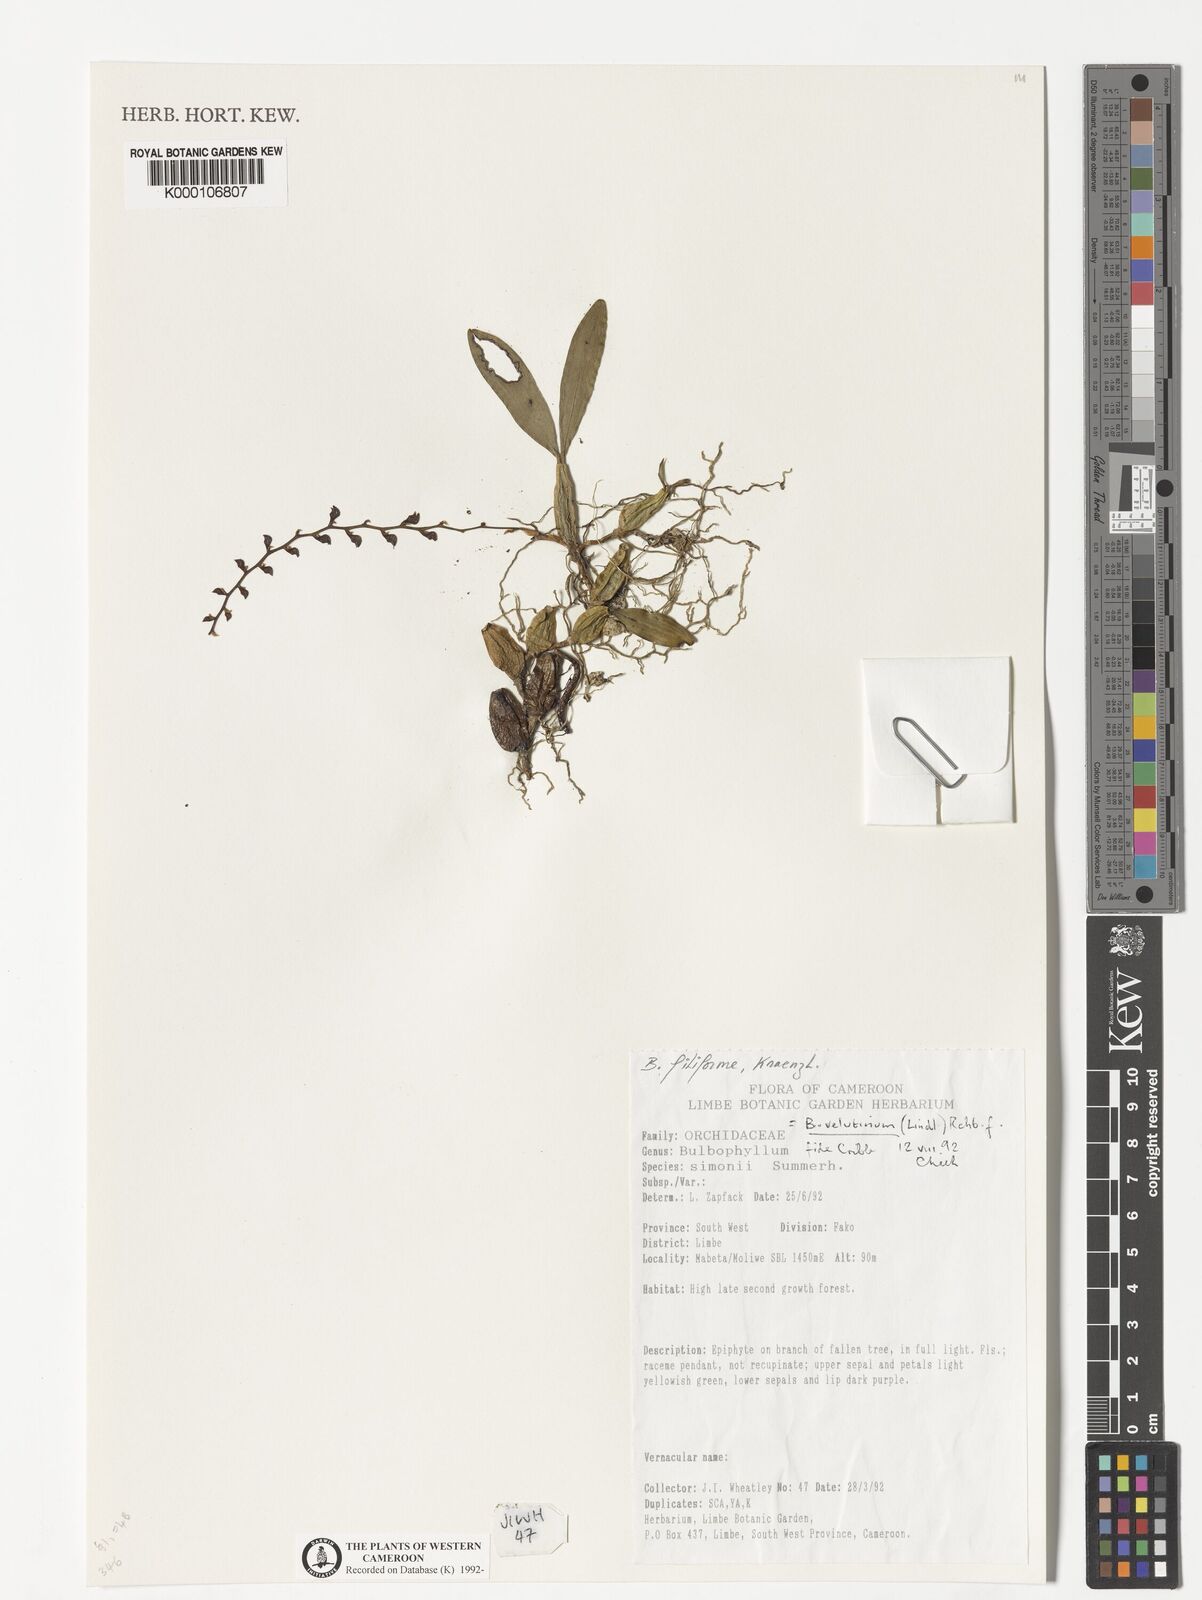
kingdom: Plantae
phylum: Tracheophyta
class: Liliopsida
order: Asparagales
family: Orchidaceae
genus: Bulbophyllum
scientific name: Bulbophyllum resupinatum
